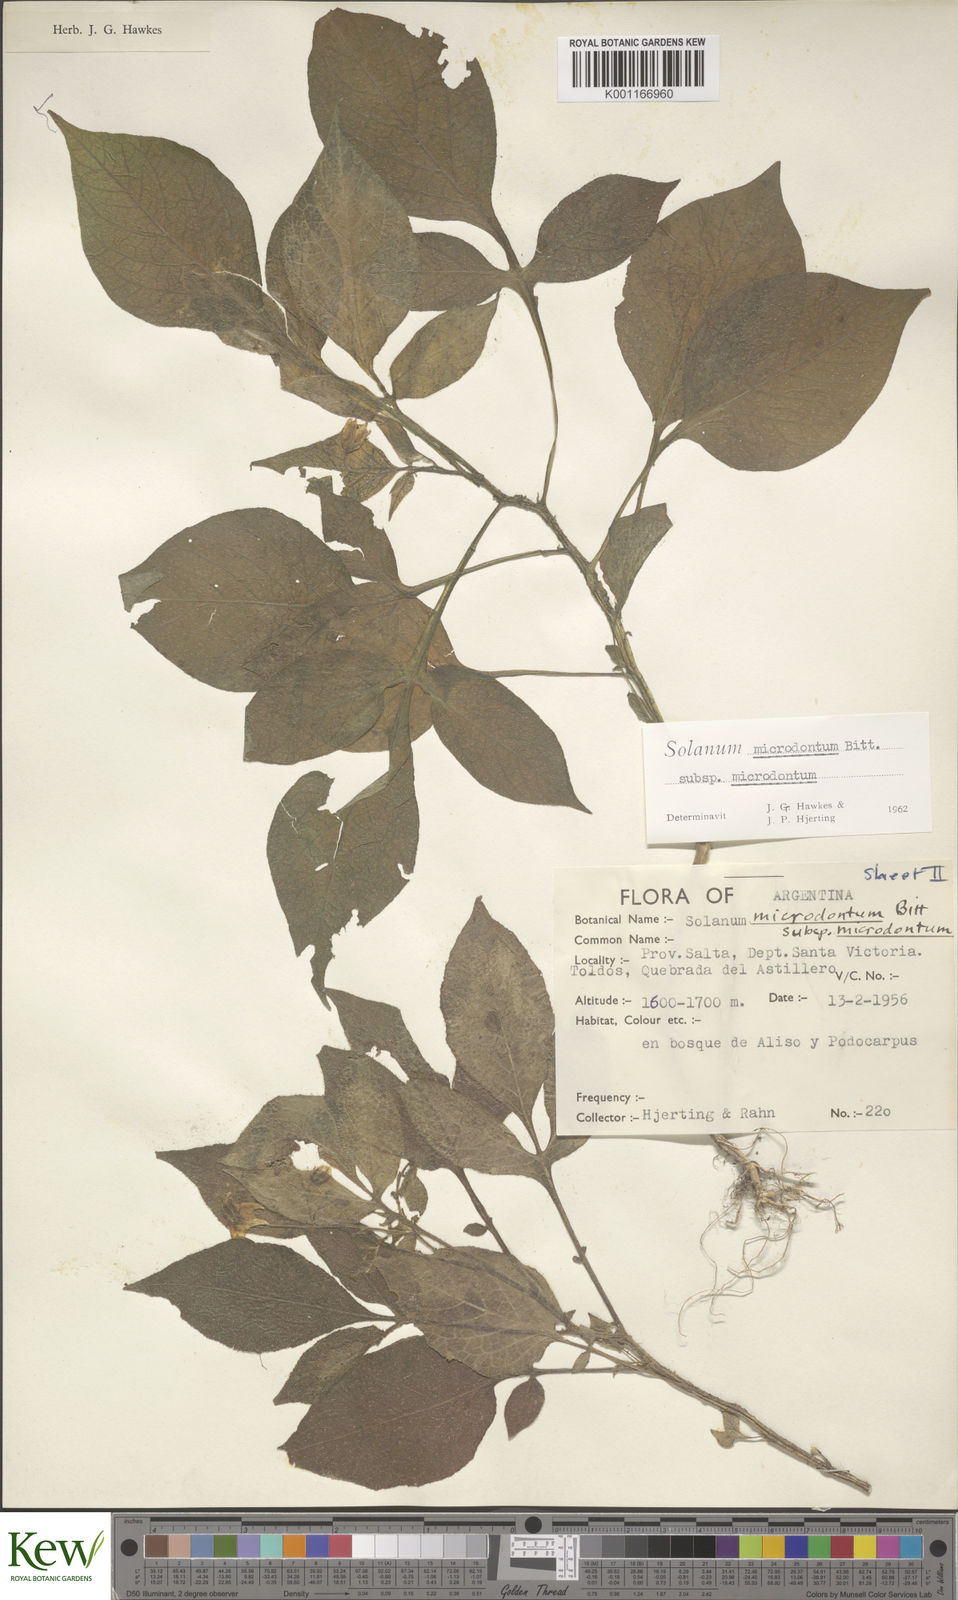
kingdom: Plantae
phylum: Tracheophyta
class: Magnoliopsida
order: Solanales
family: Solanaceae
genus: Solanum
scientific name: Solanum microdontum
